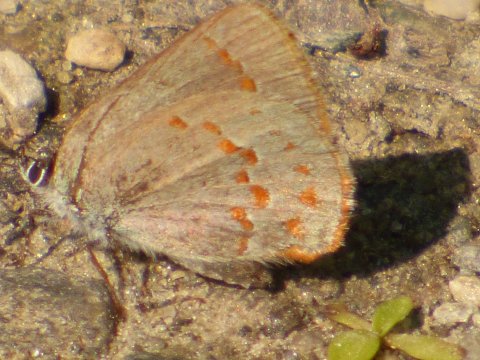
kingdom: Animalia
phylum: Arthropoda
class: Insecta
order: Lepidoptera
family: Lycaenidae
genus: Erora
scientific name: Erora laeta
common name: Early Hairstreak
